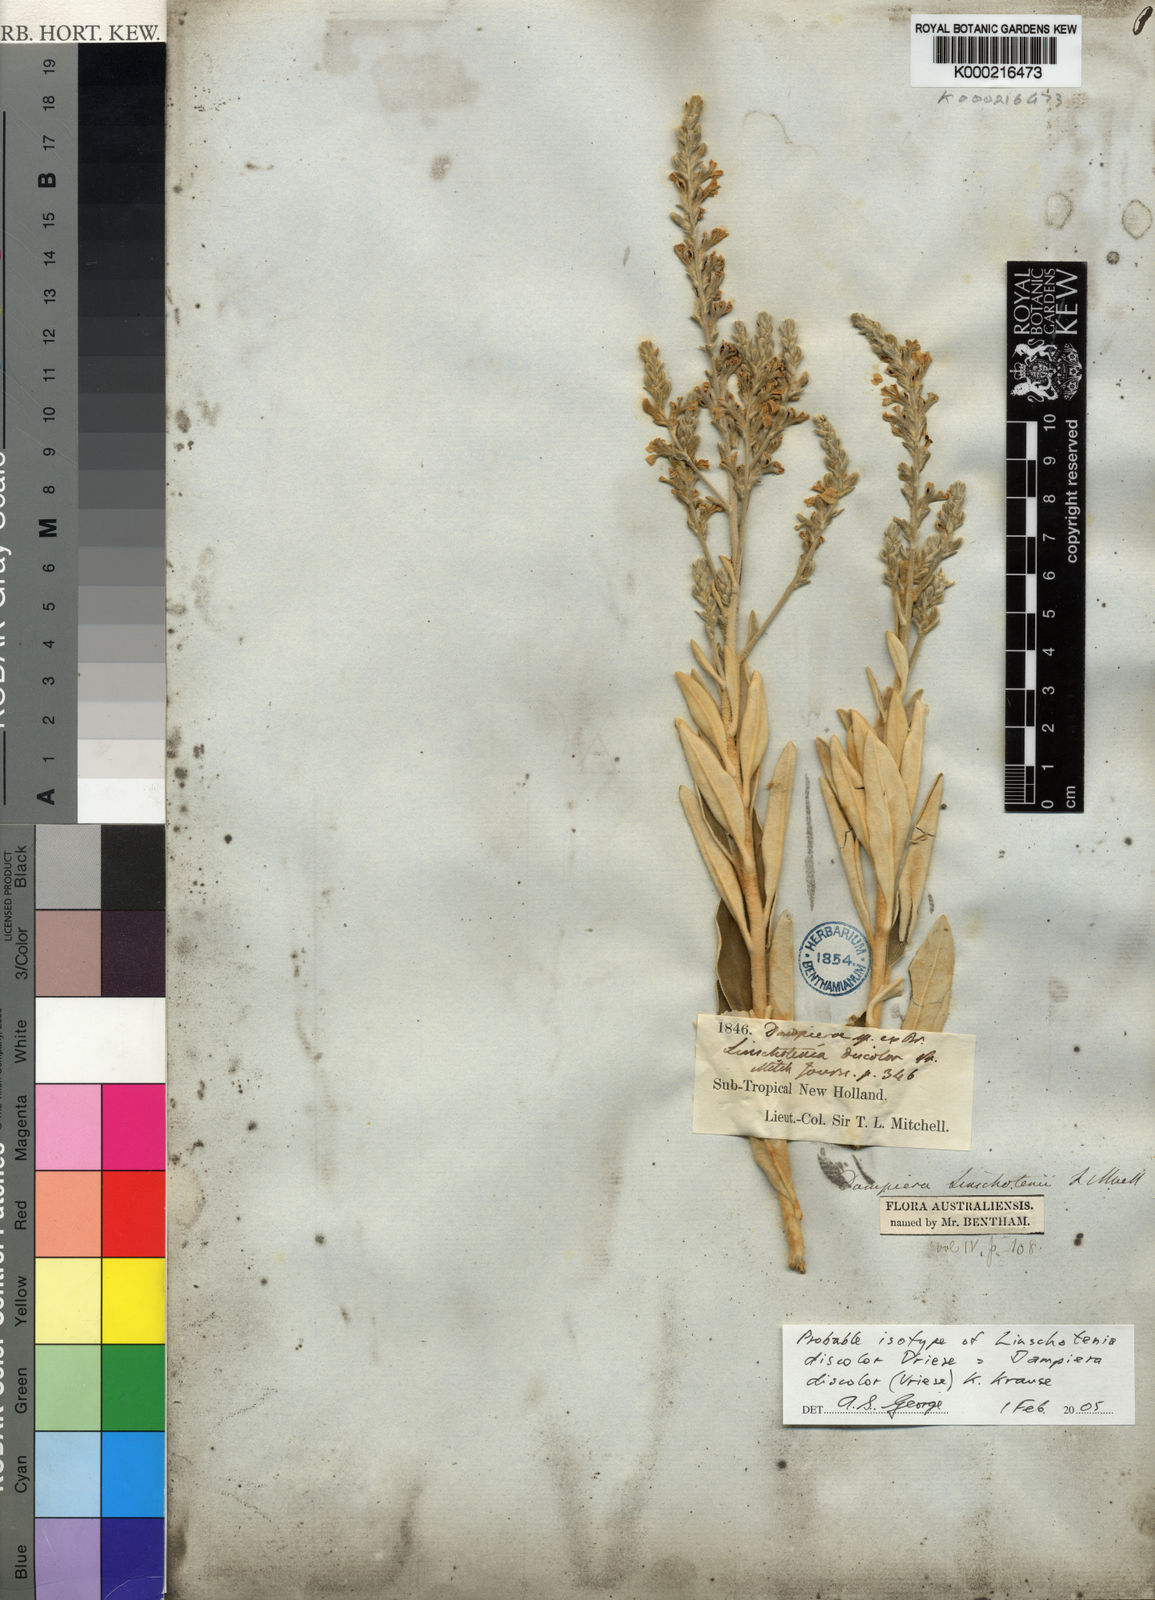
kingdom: Plantae
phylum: Tracheophyta
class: Magnoliopsida
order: Asterales
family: Goodeniaceae
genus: Dampiera
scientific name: Dampiera discolor
